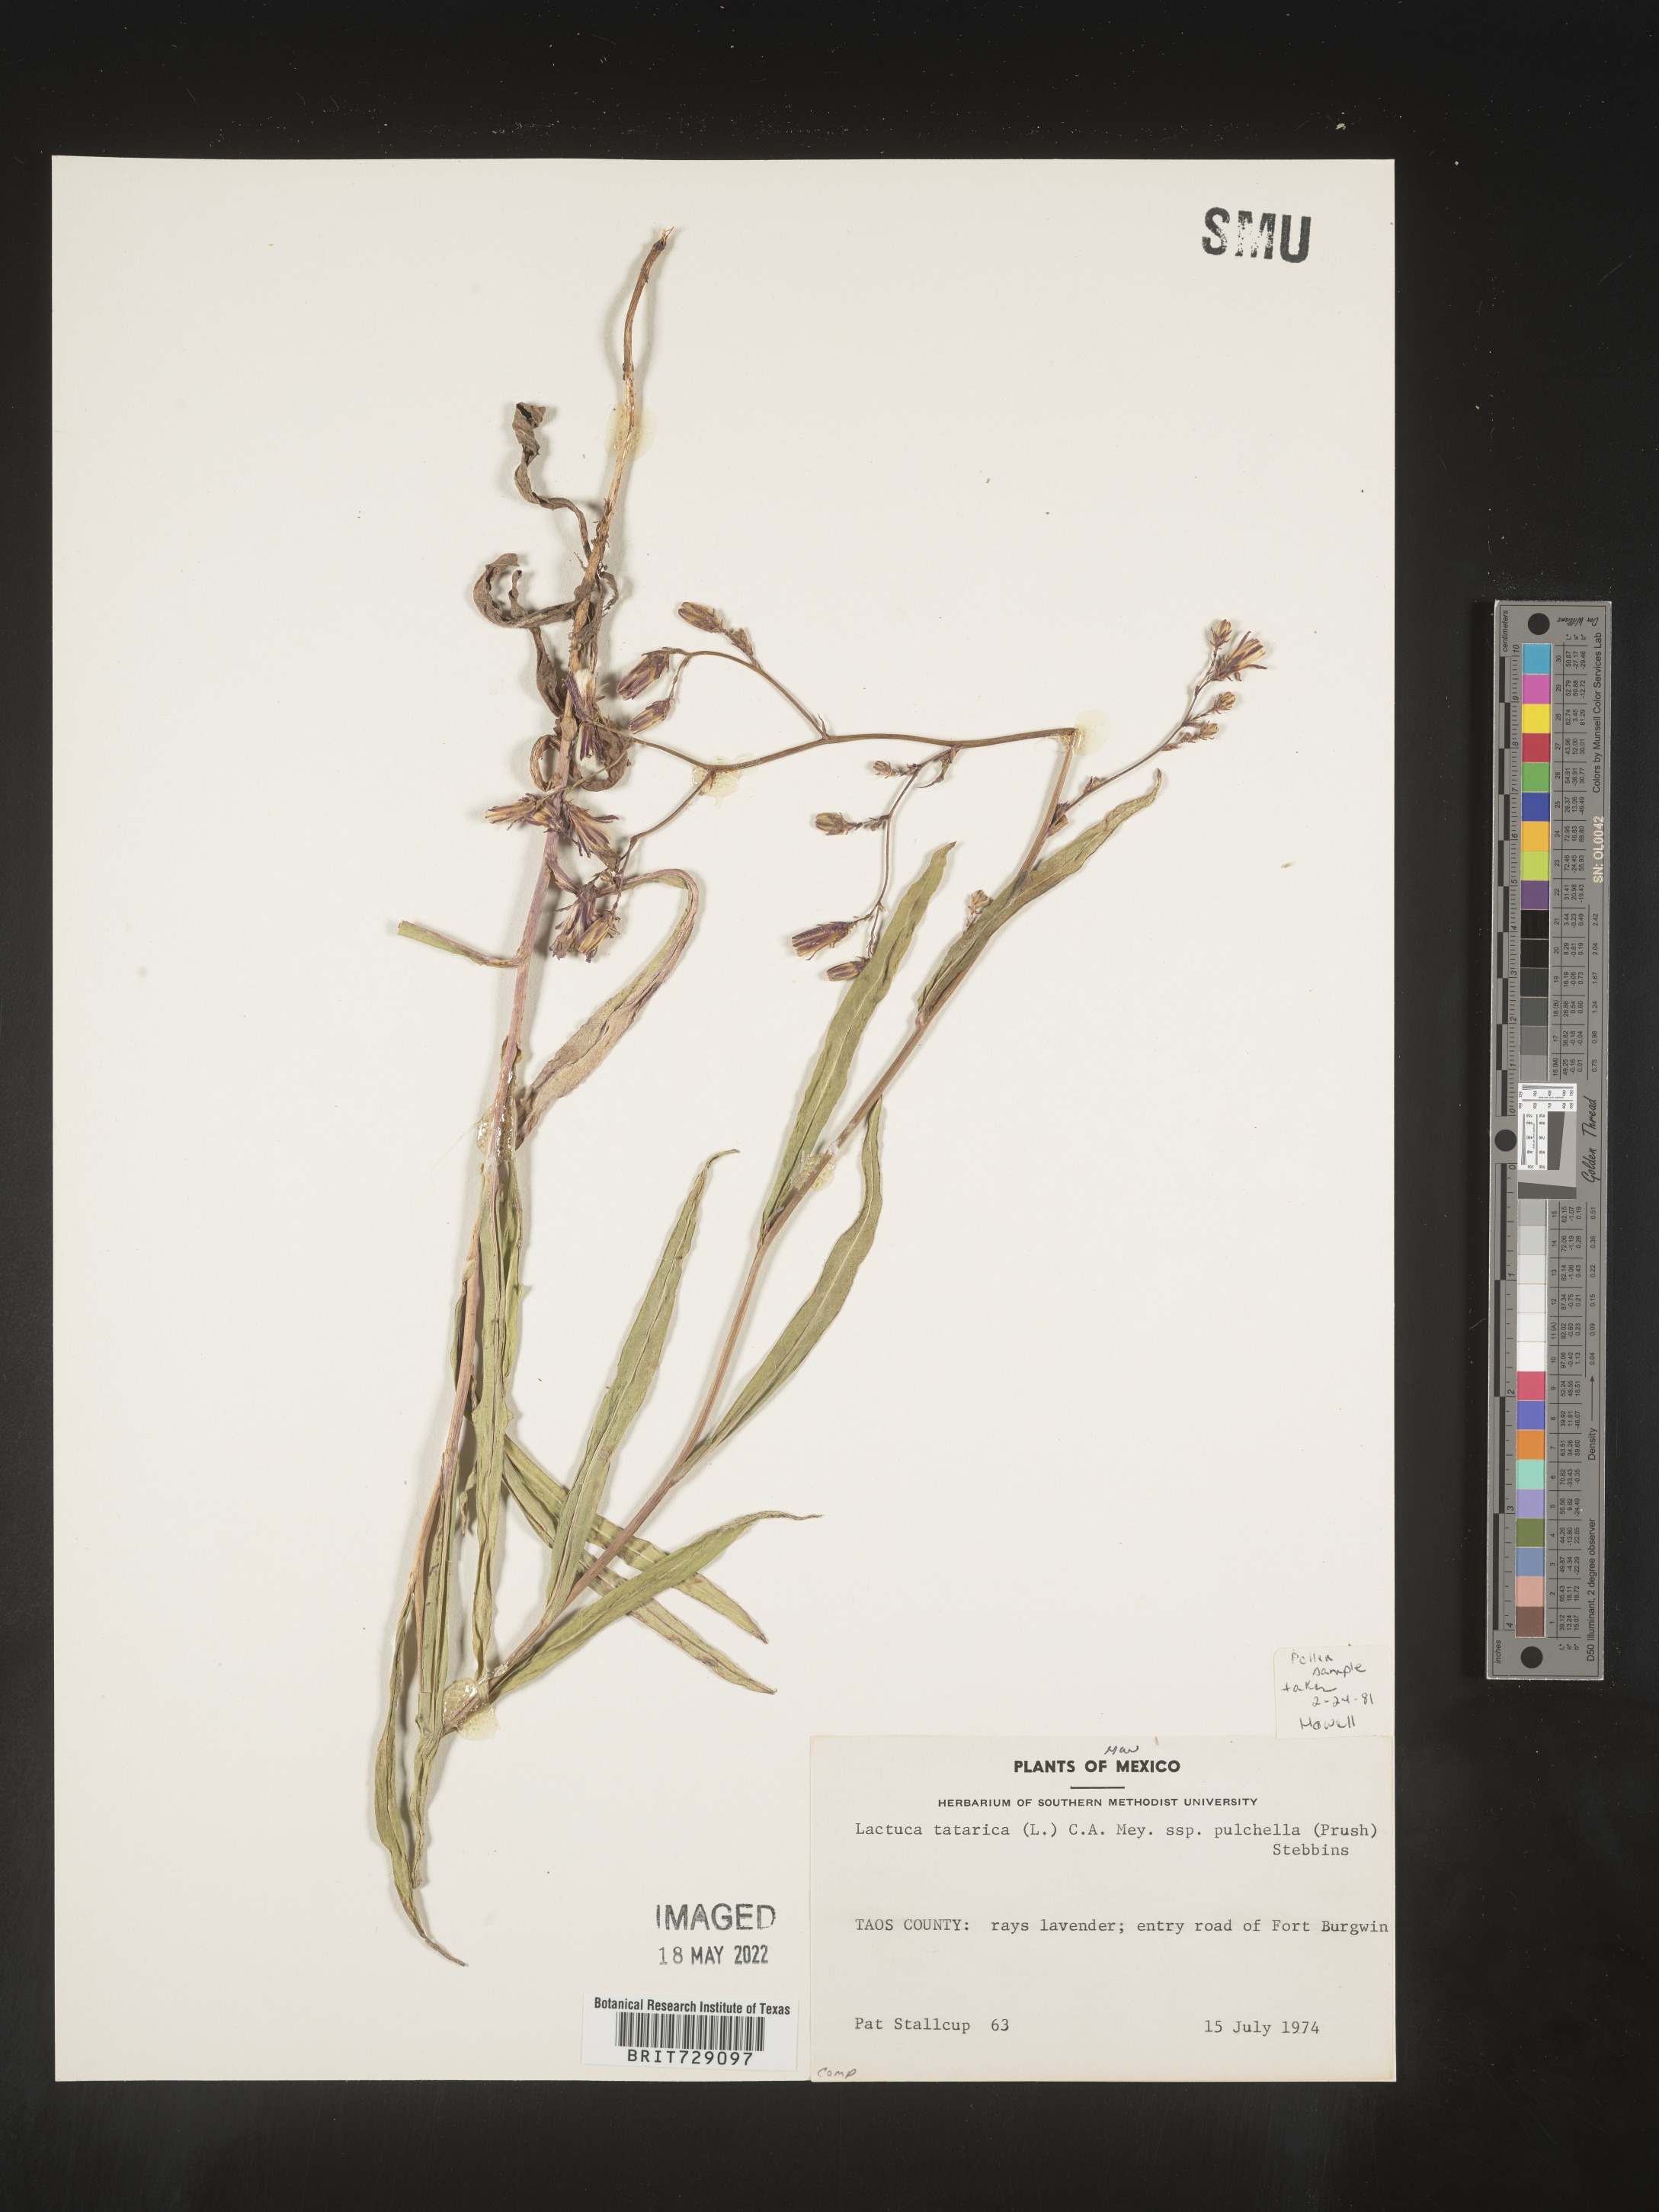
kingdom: Plantae
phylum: Tracheophyta
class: Magnoliopsida
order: Asterales
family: Asteraceae
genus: Lactuca
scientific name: Lactuca
